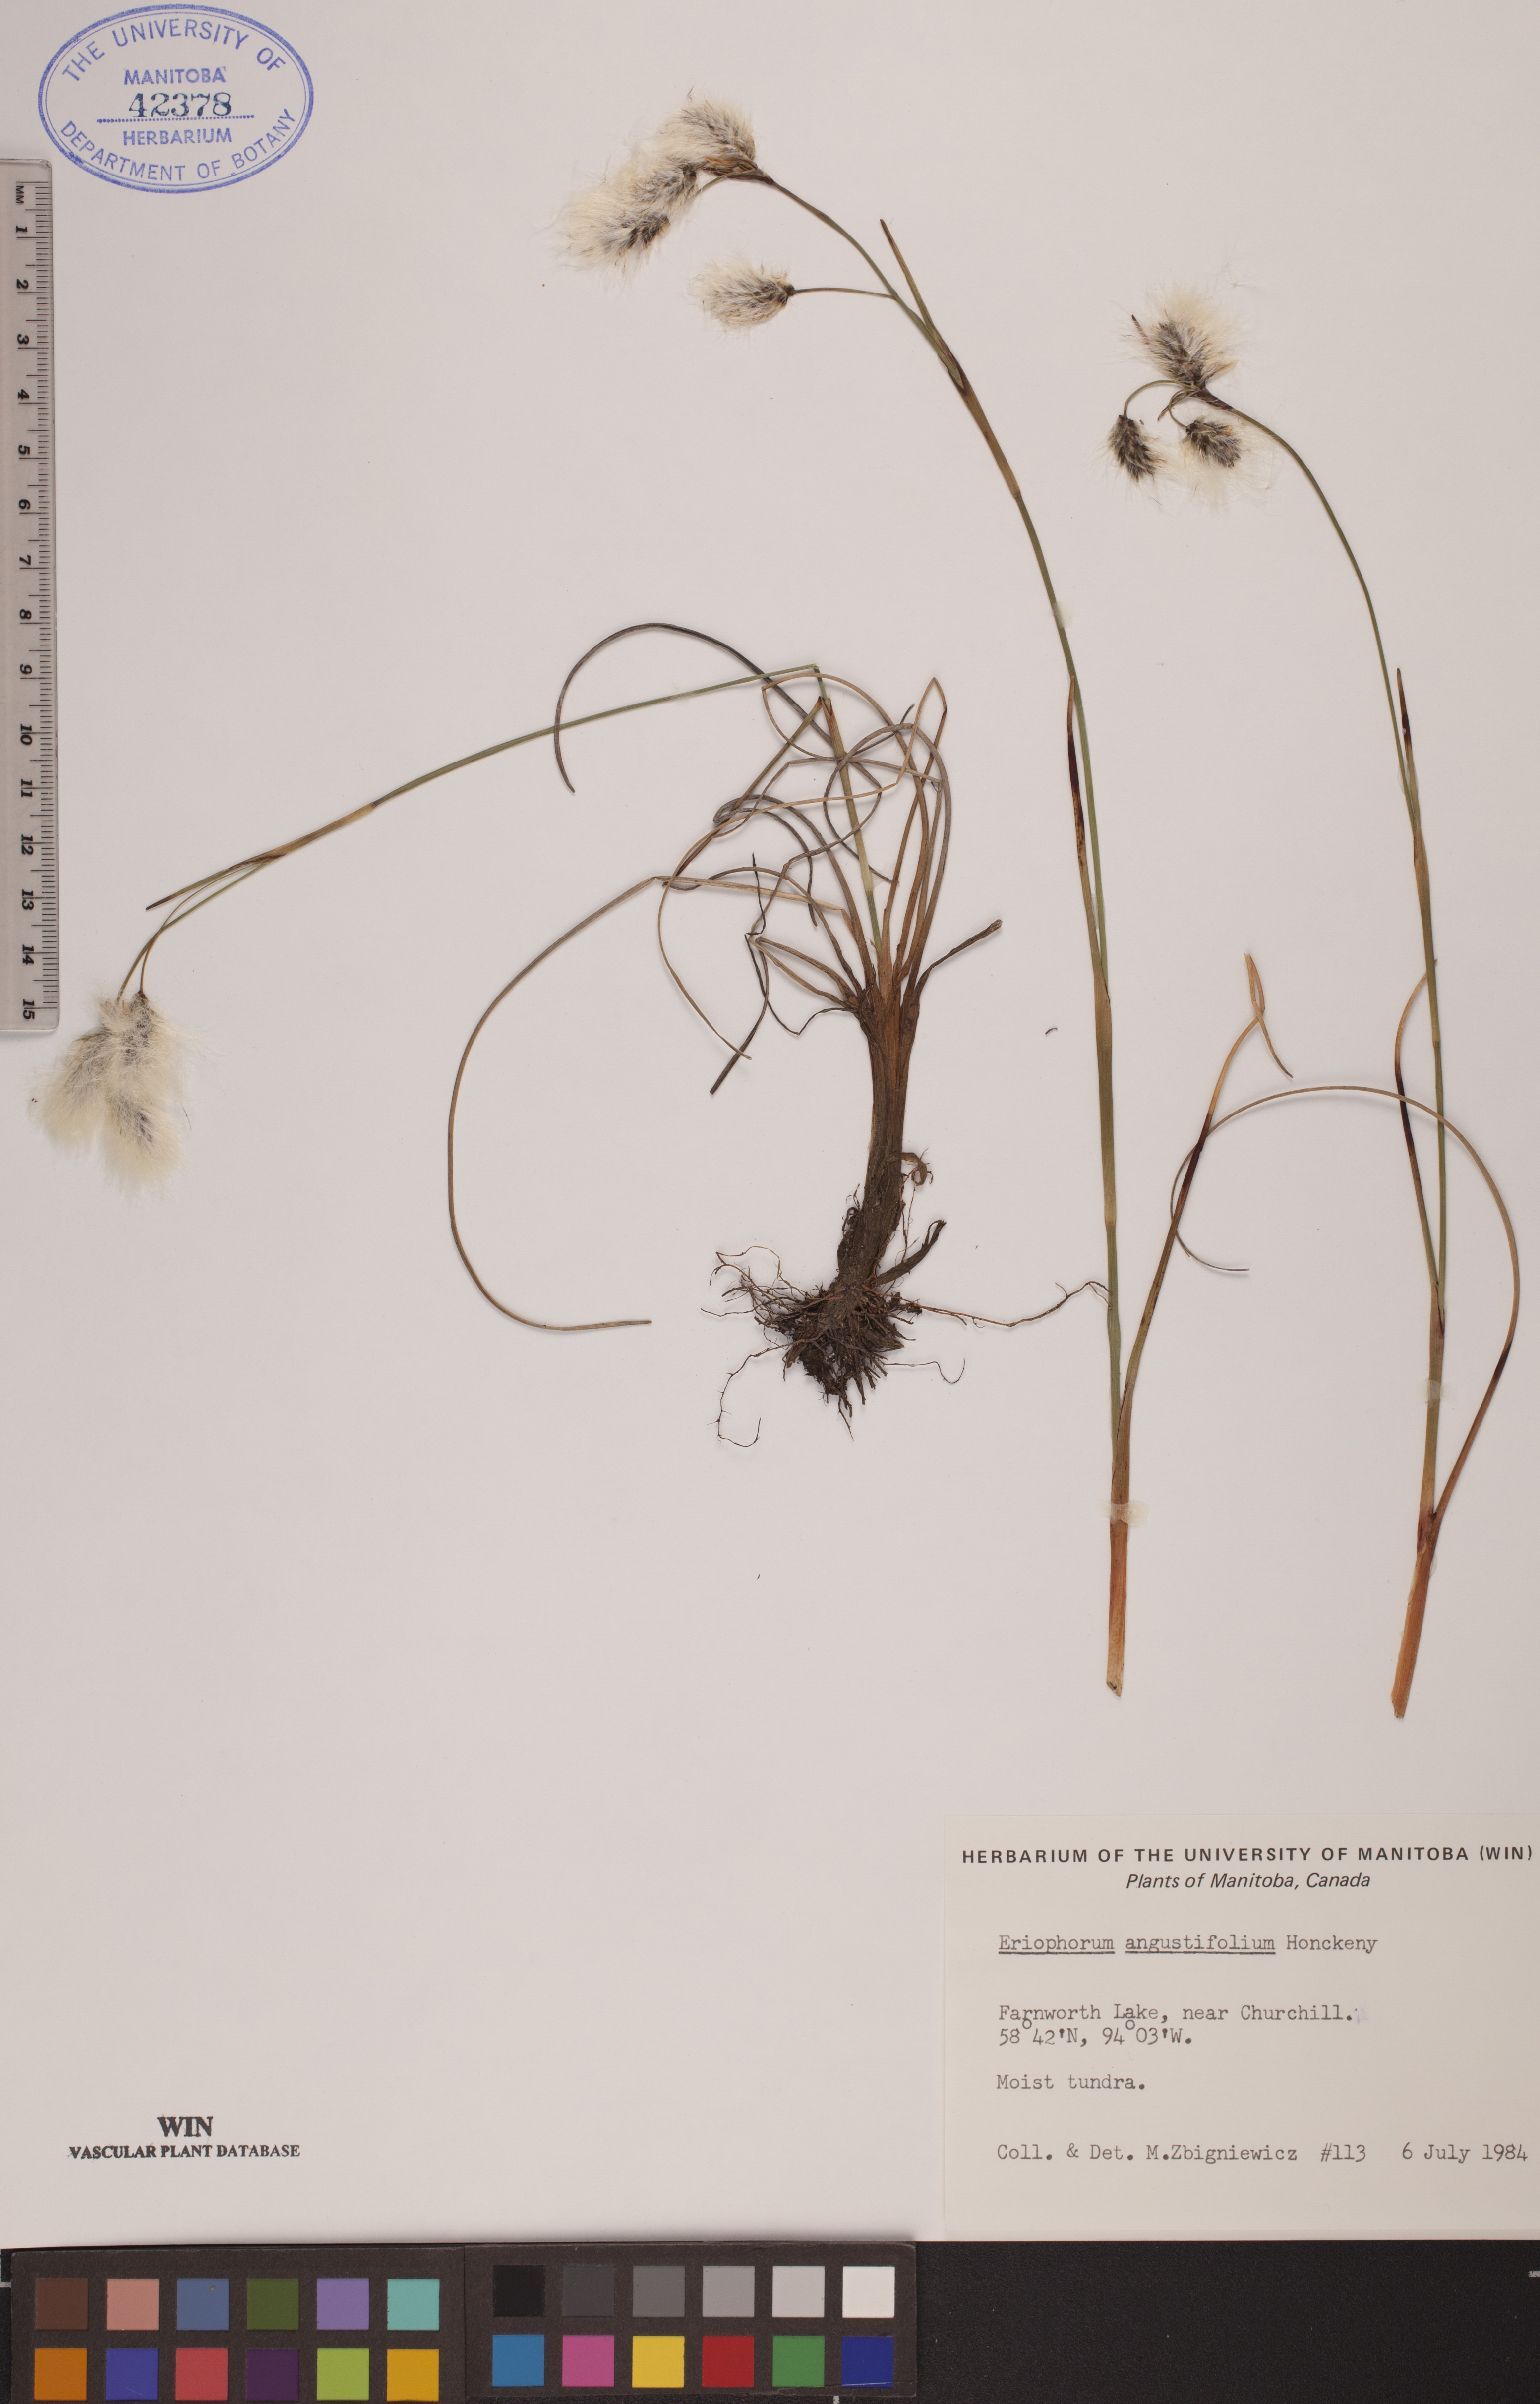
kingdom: Plantae
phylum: Tracheophyta
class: Liliopsida
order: Poales
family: Cyperaceae
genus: Eriophorum
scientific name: Eriophorum angustifolium
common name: Common cottongrass
